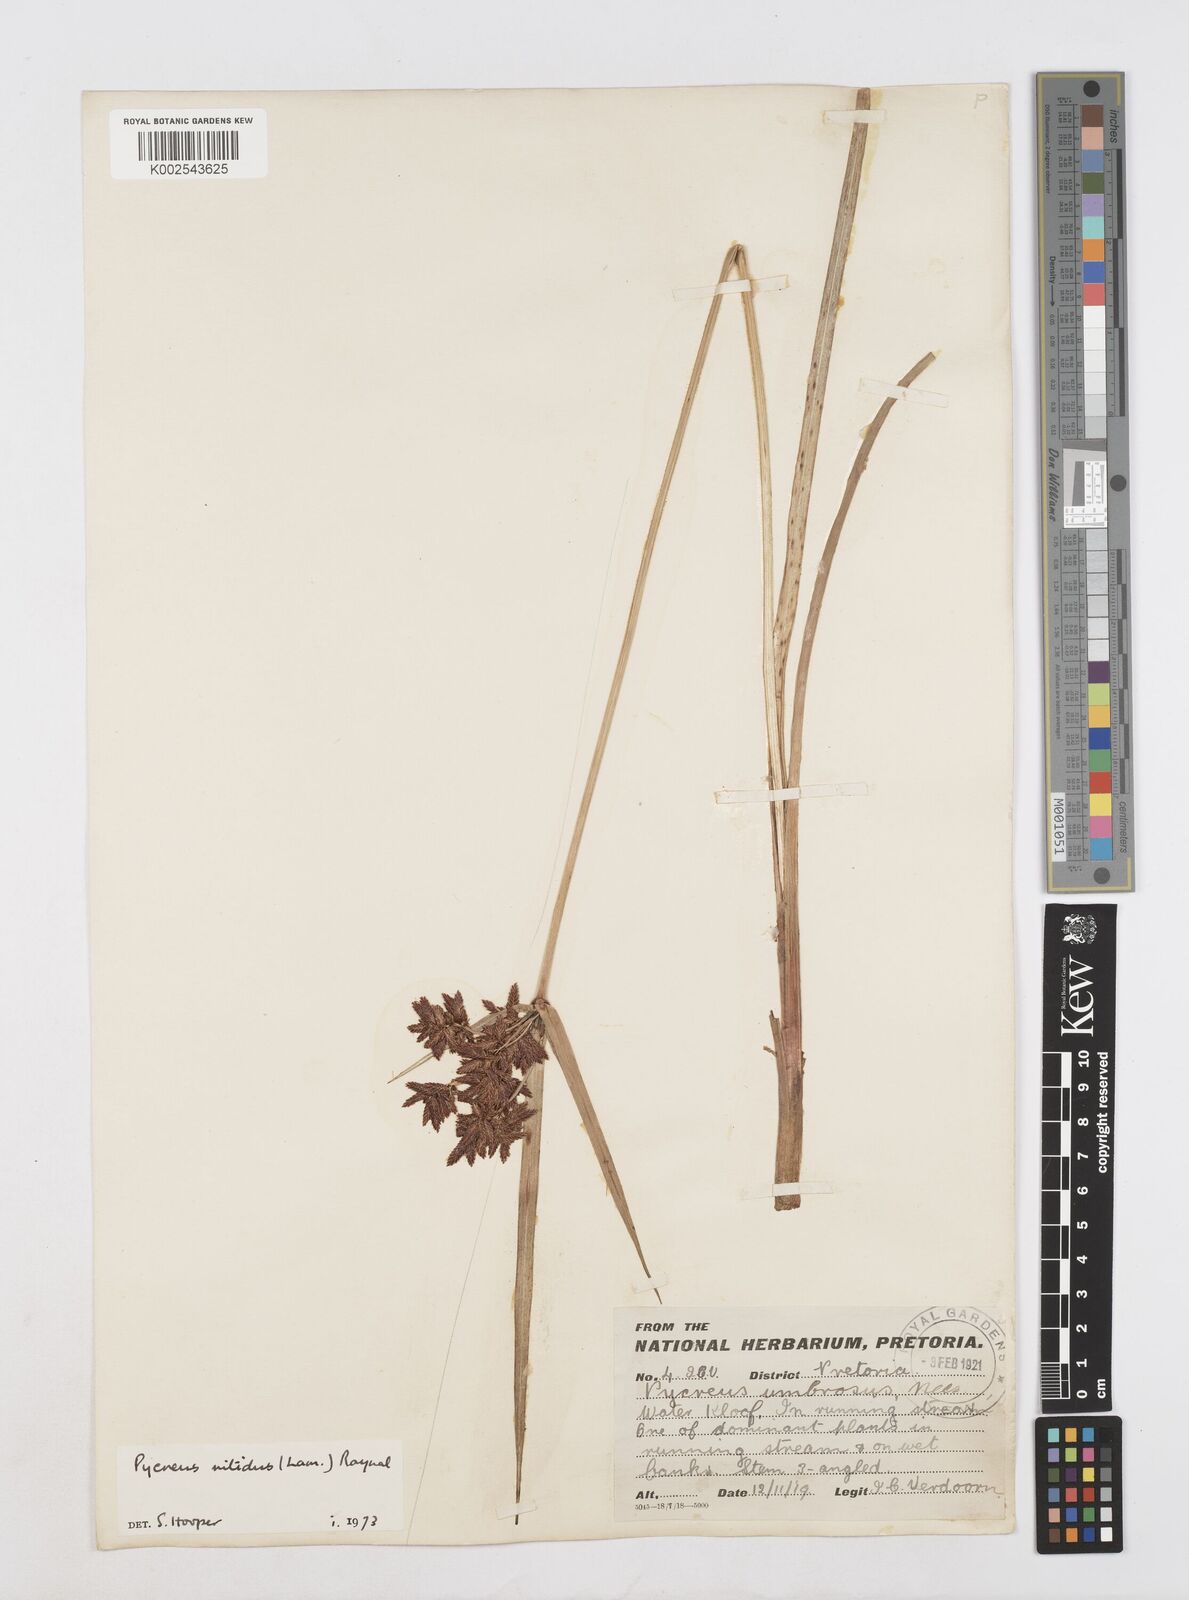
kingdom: Plantae
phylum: Tracheophyta
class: Liliopsida
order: Poales
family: Cyperaceae
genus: Cyperus
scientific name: Cyperus nitidus
